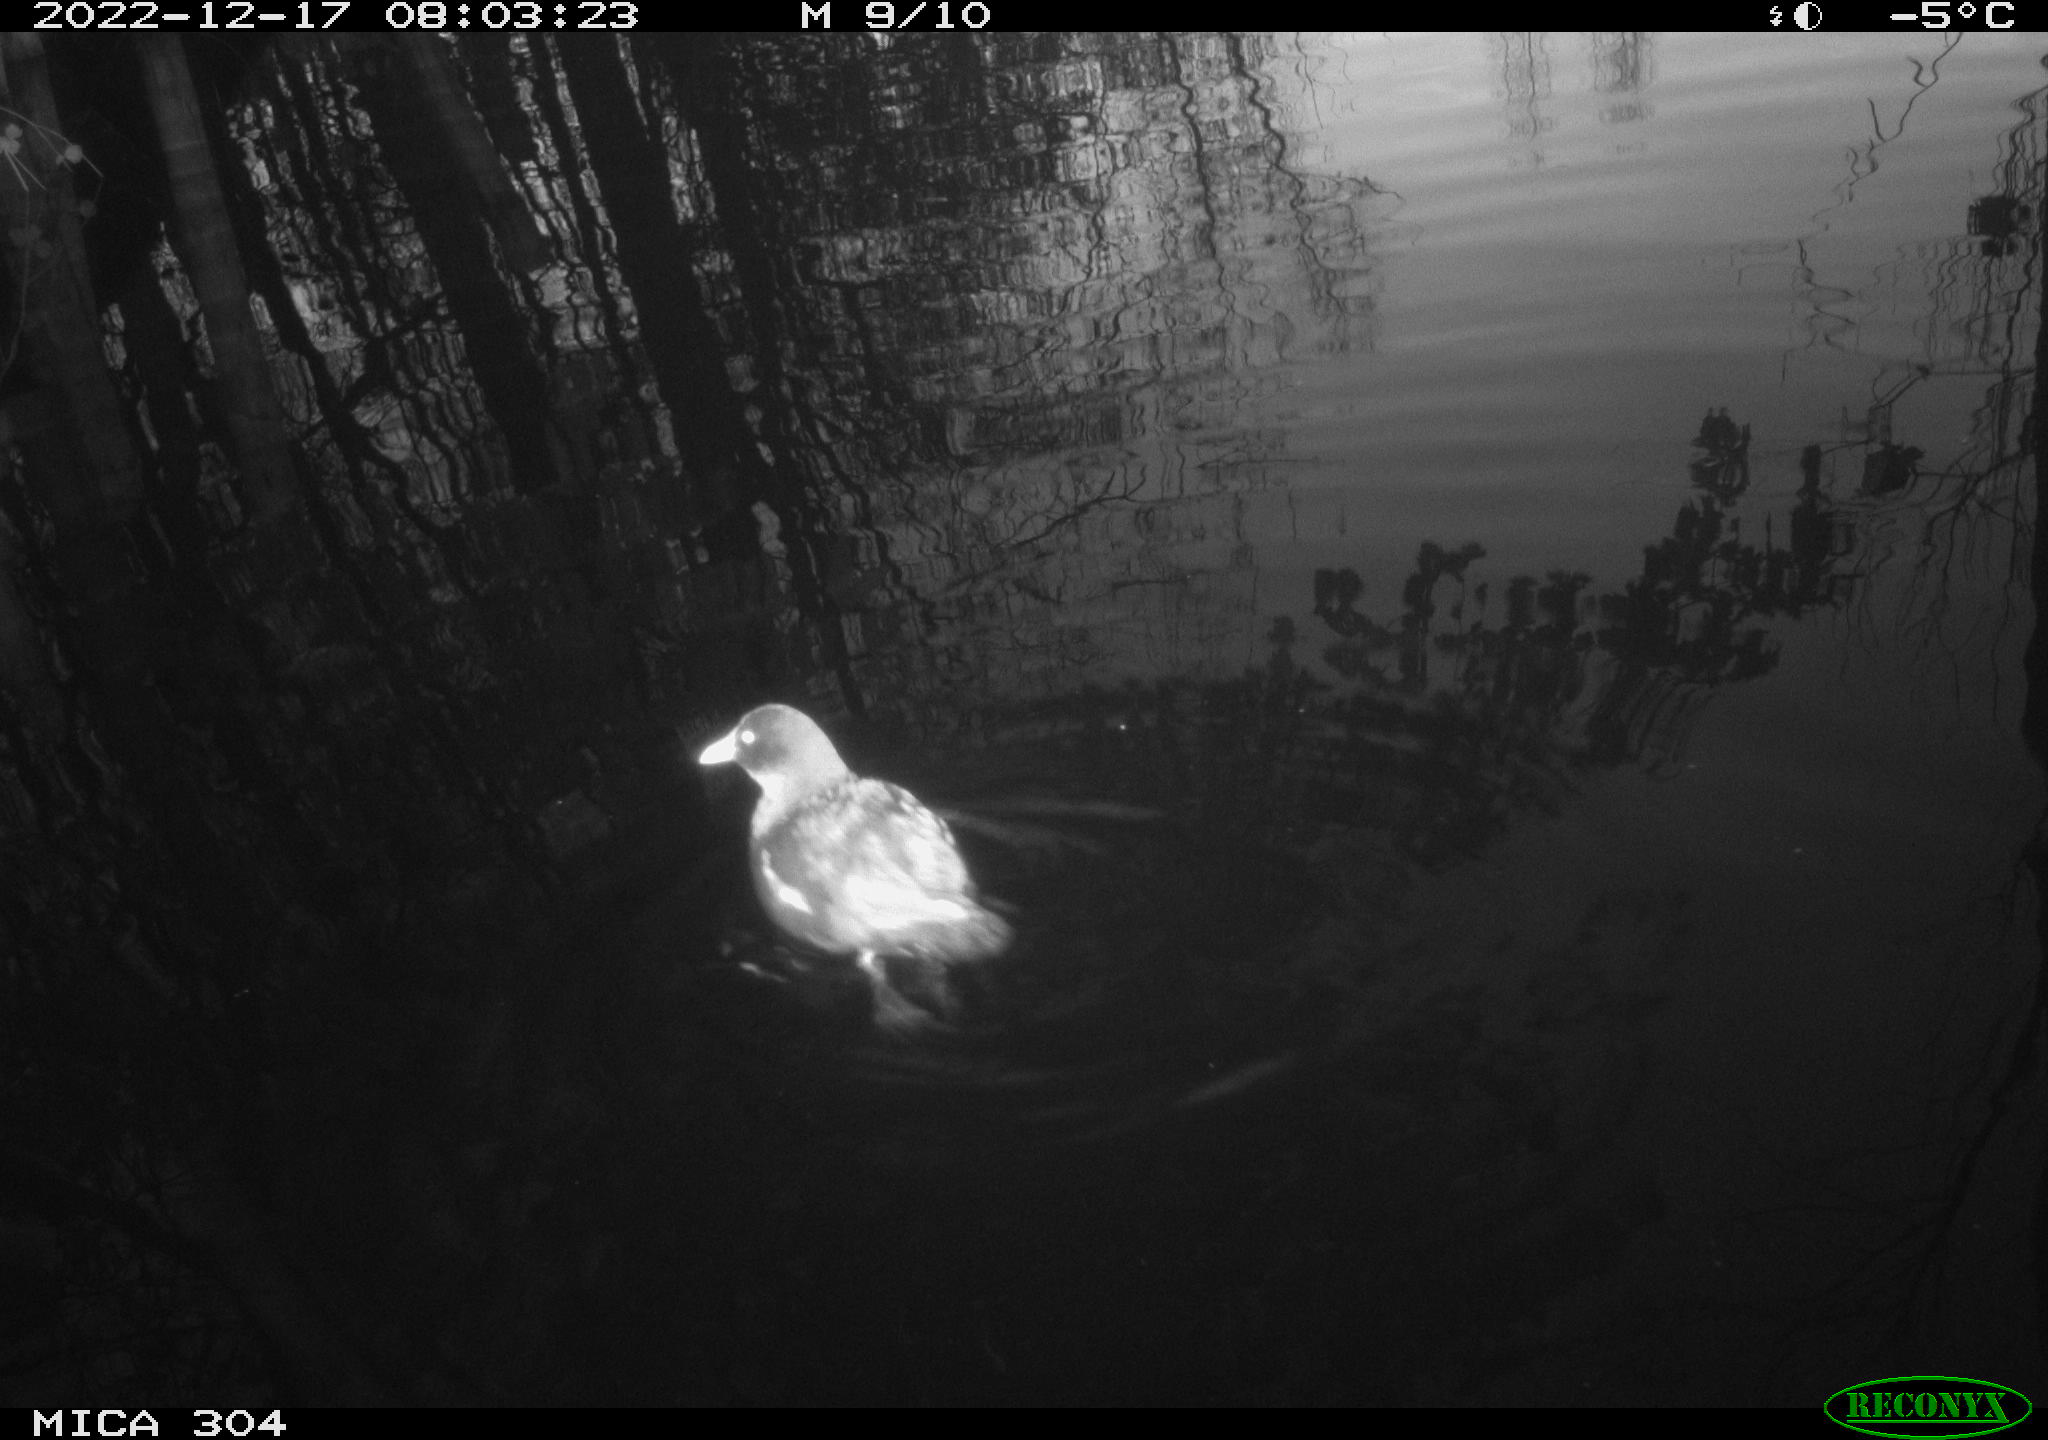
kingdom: Animalia
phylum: Chordata
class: Aves
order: Gruiformes
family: Rallidae
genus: Gallinula
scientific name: Gallinula chloropus
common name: Common moorhen
